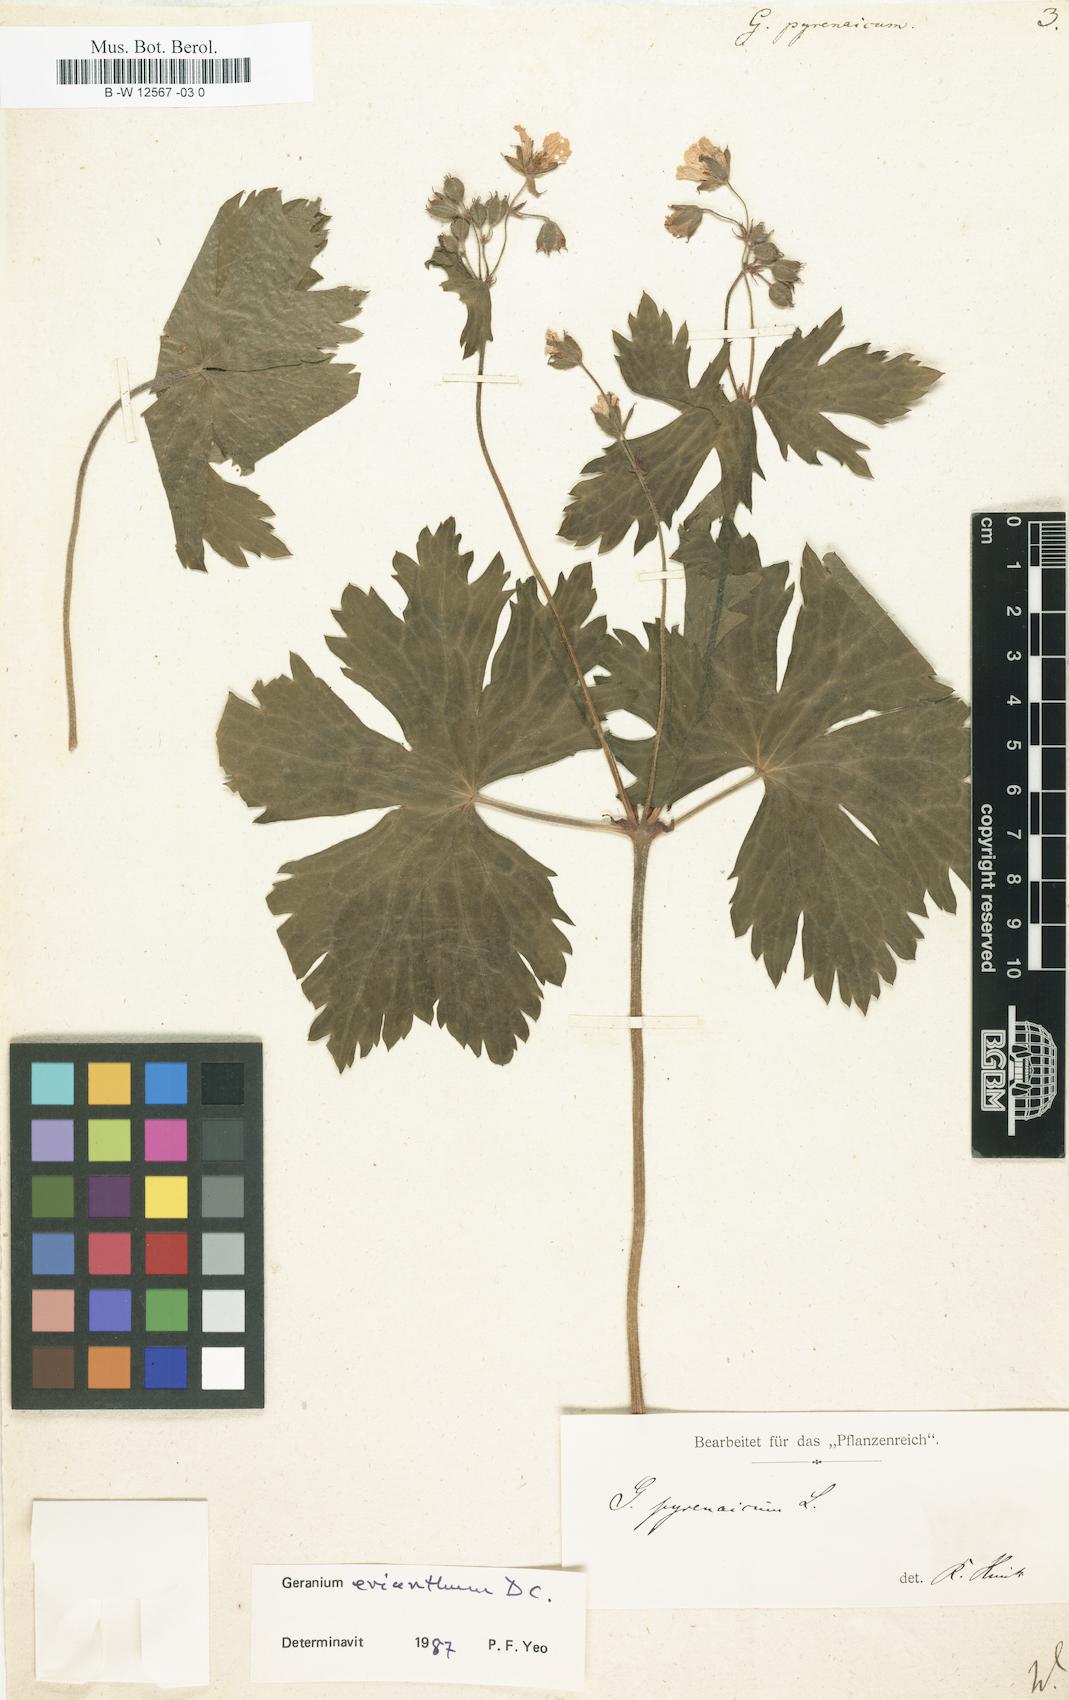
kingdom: Plantae
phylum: Tracheophyta
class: Magnoliopsida
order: Geraniales
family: Geraniaceae
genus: Geranium
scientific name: Geranium pyrenaicum
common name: Hedgerow crane's-bill
